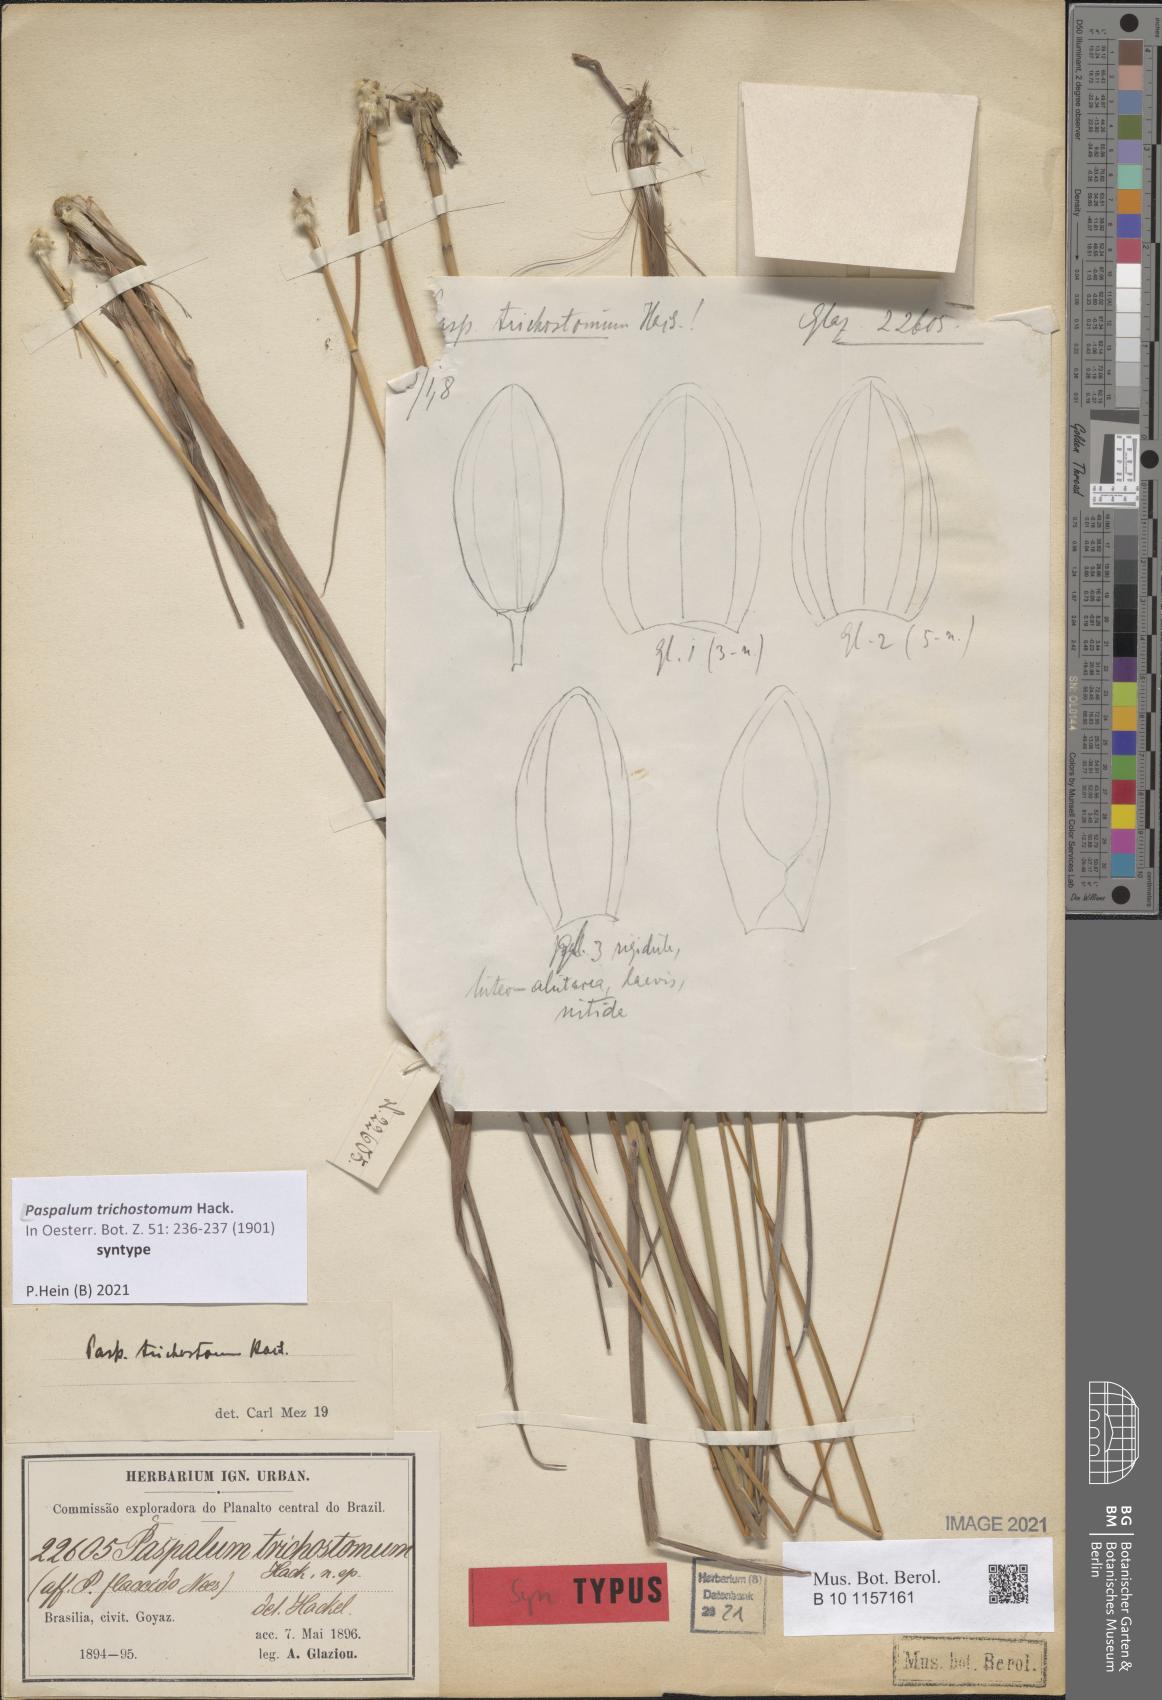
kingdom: Plantae
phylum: Tracheophyta
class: Liliopsida
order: Poales
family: Poaceae
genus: Paspalum
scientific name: Paspalum trichostomum
